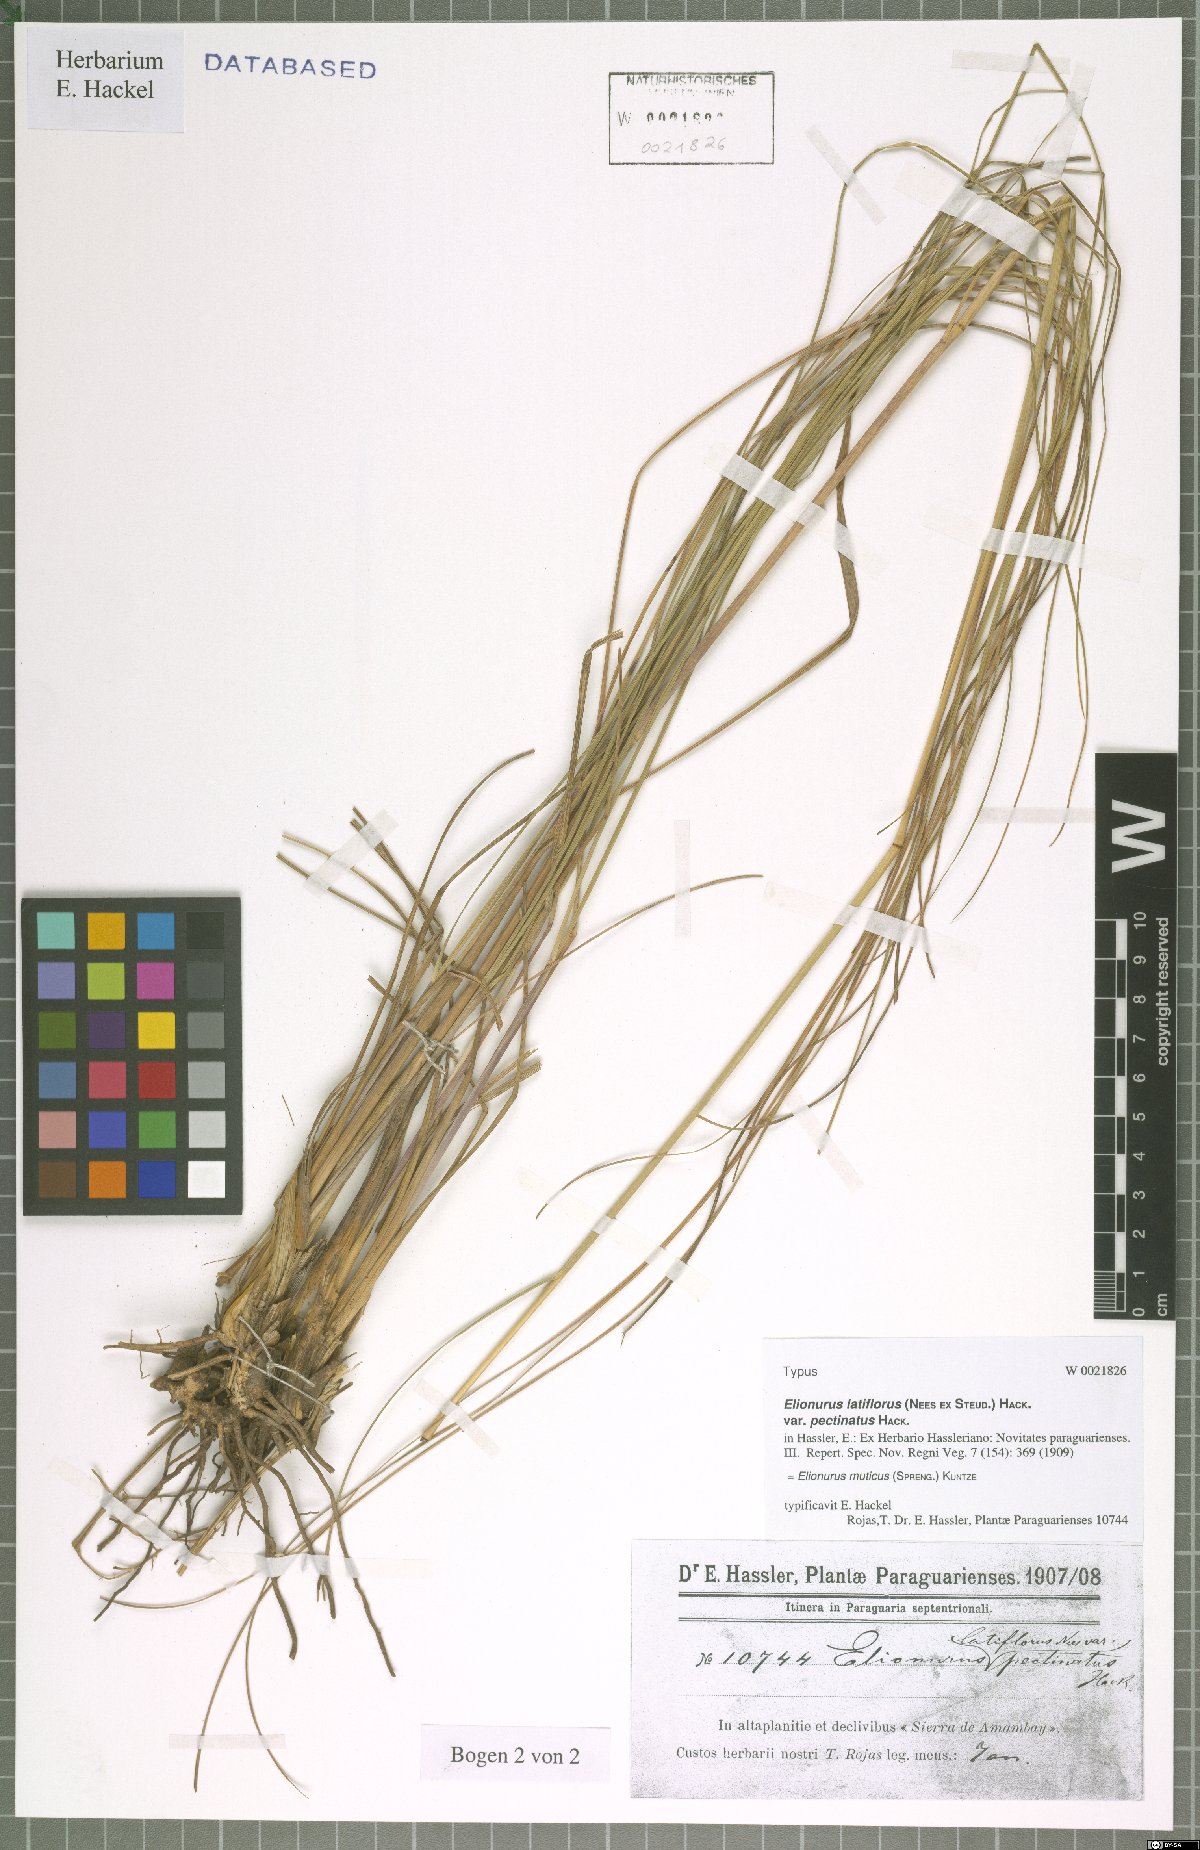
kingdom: Plantae
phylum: Tracheophyta
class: Liliopsida
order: Poales
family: Poaceae
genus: Elionurus
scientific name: Elionurus muticus
